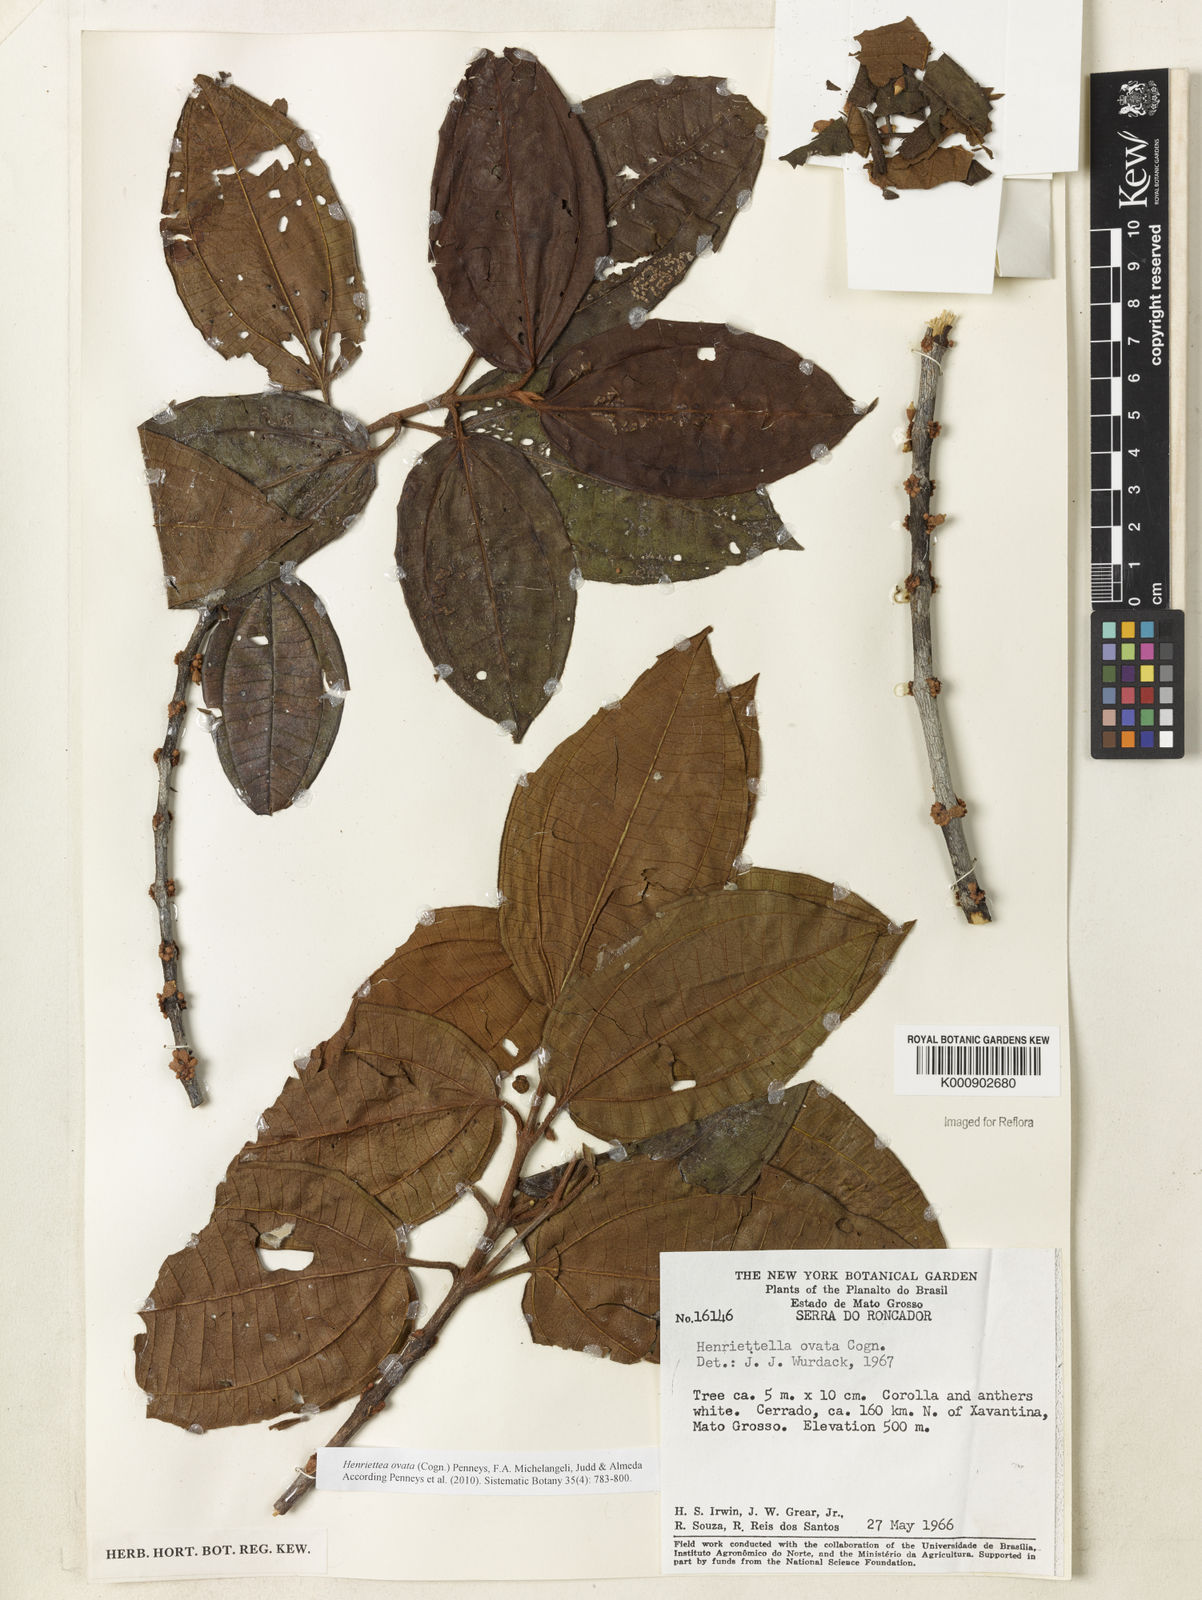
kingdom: Plantae
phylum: Tracheophyta
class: Magnoliopsida
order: Myrtales
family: Melastomataceae
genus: Henriettea
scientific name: Henriettea ovata
